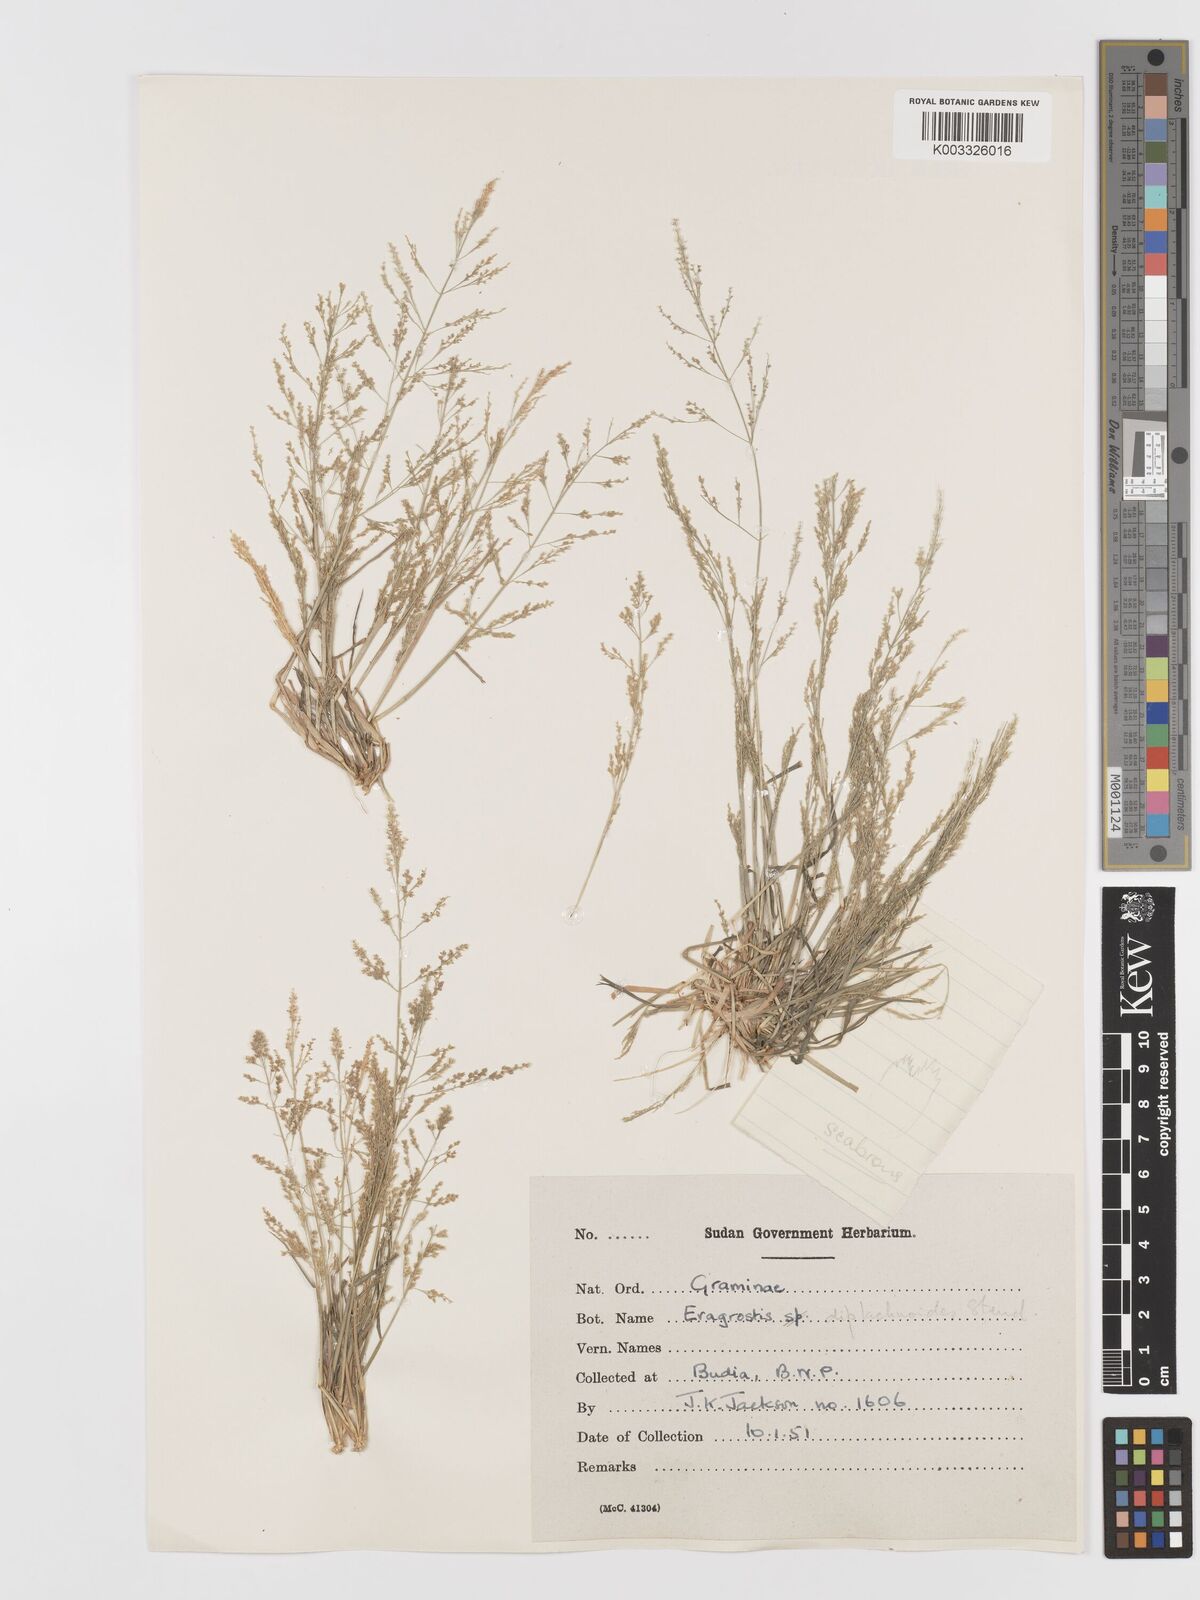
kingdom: Plantae
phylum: Tracheophyta
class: Liliopsida
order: Poales
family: Poaceae
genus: Eragrostis
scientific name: Eragrostis japonica
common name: Pond lovegrass
